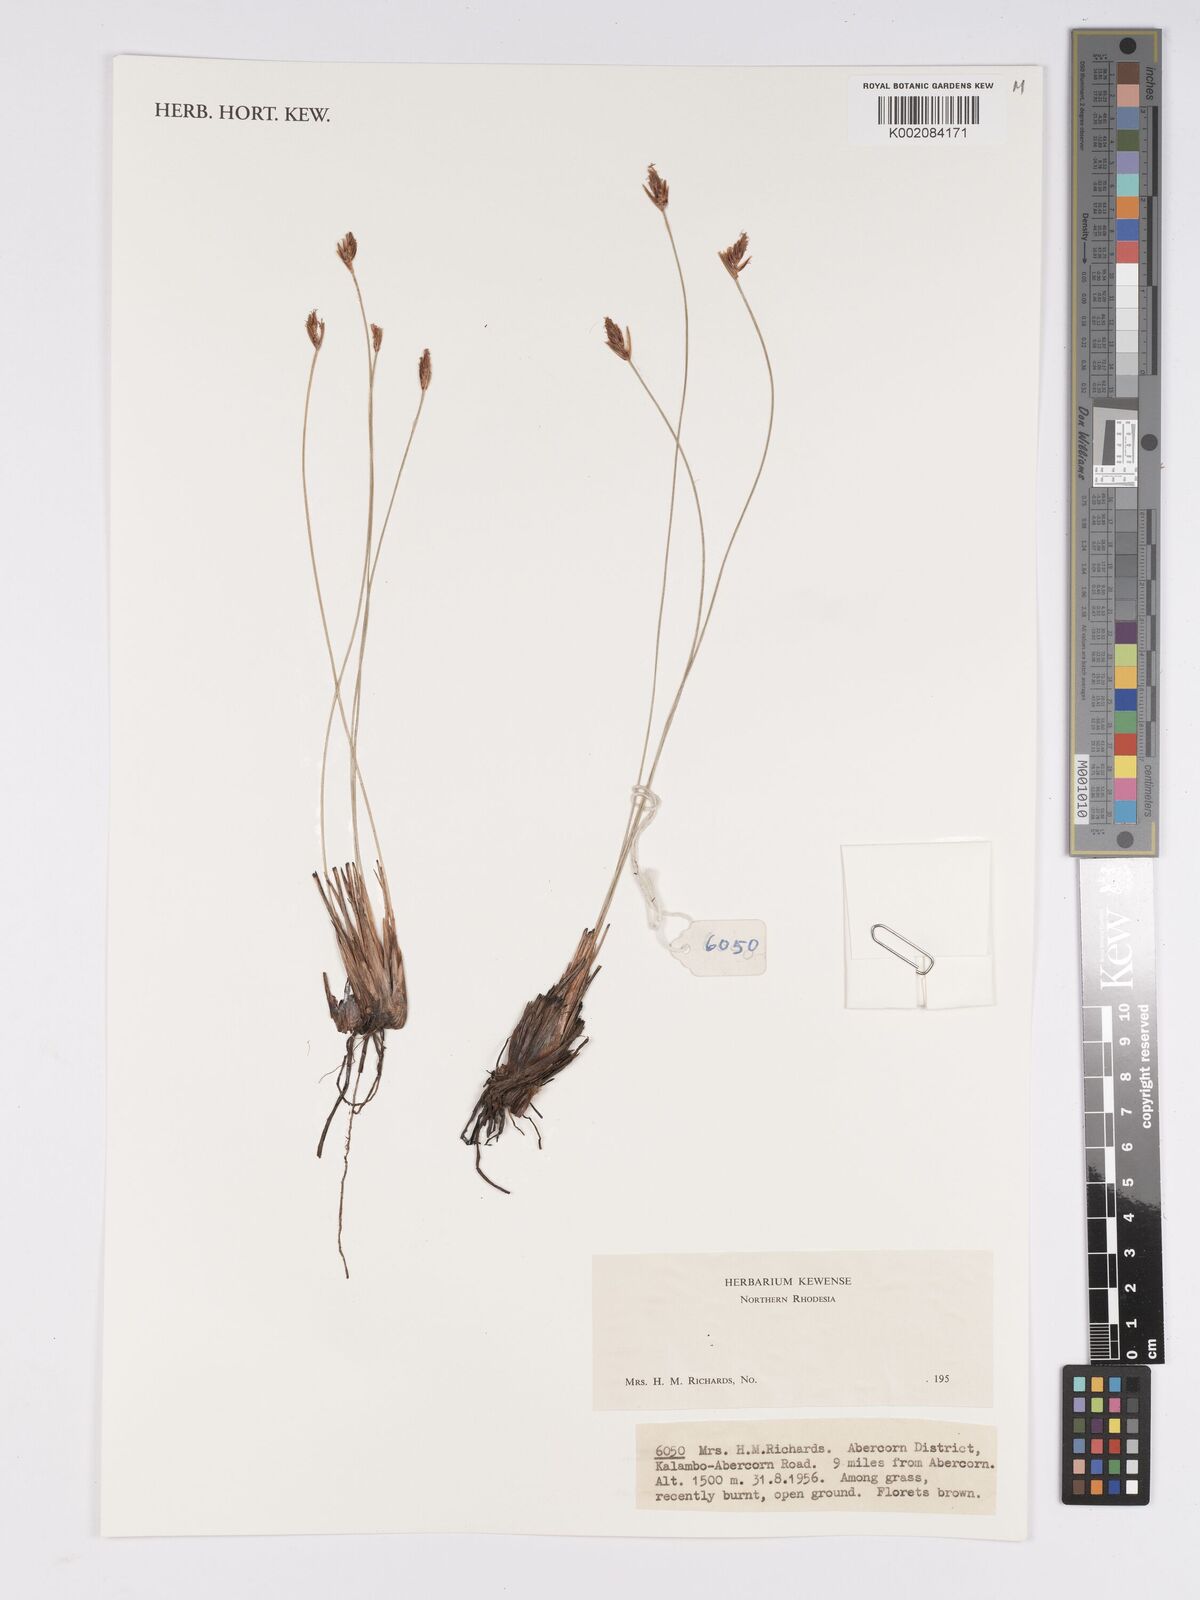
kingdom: Plantae
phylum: Tracheophyta
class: Liliopsida
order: Poales
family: Cyperaceae
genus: Bulbostylis
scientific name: Bulbostylis
